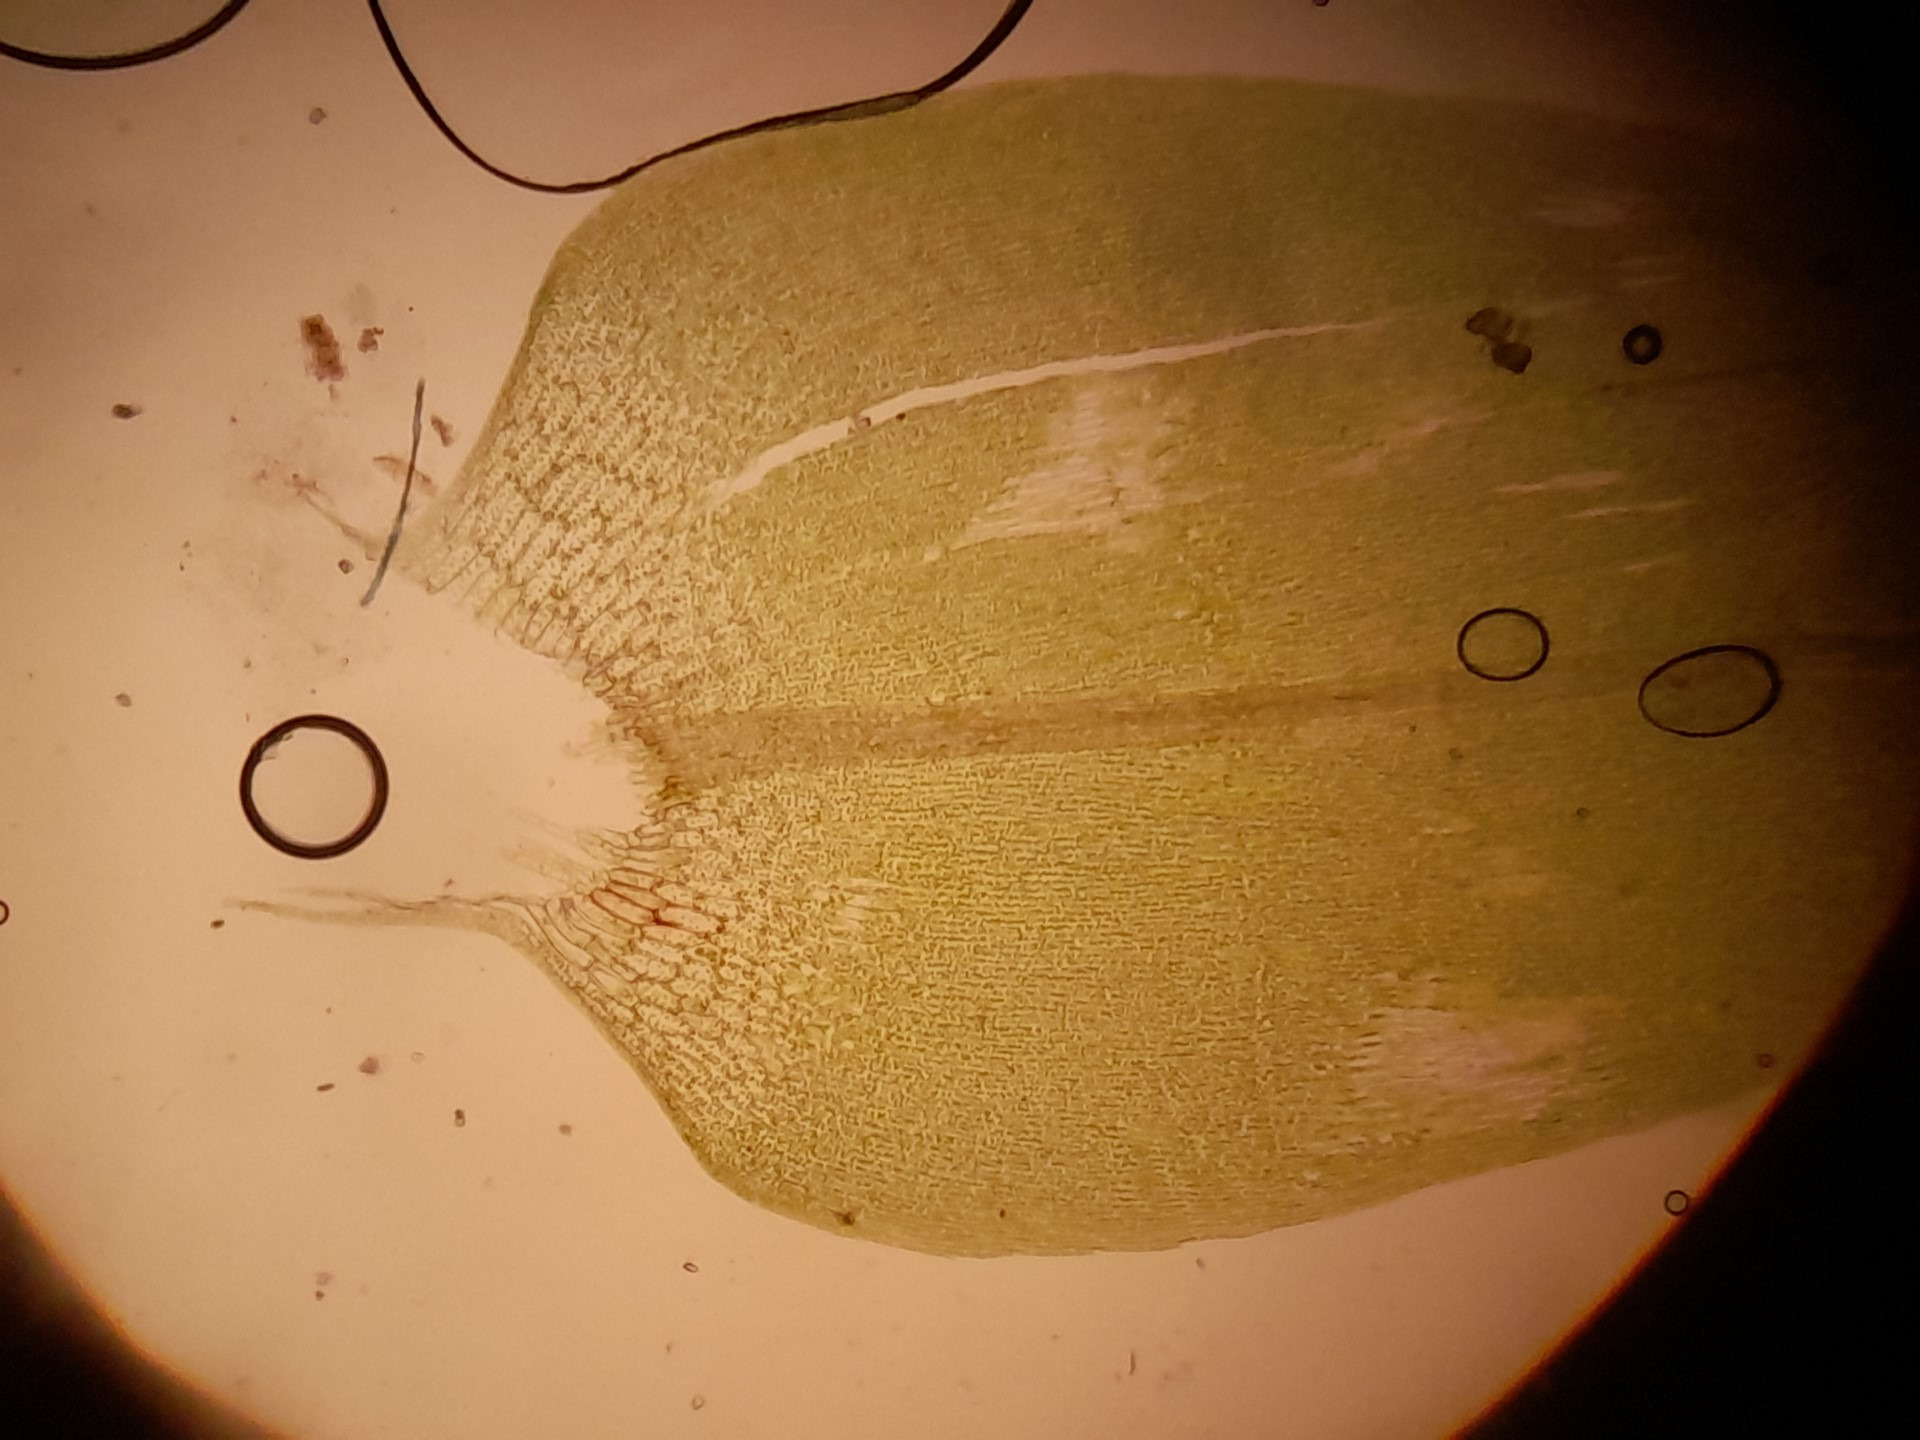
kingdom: Plantae
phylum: Bryophyta
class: Bryopsida
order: Hypnales
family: Calliergonaceae
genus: Calliergon
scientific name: Calliergon cordifolium
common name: Almindelig skebladsmos
